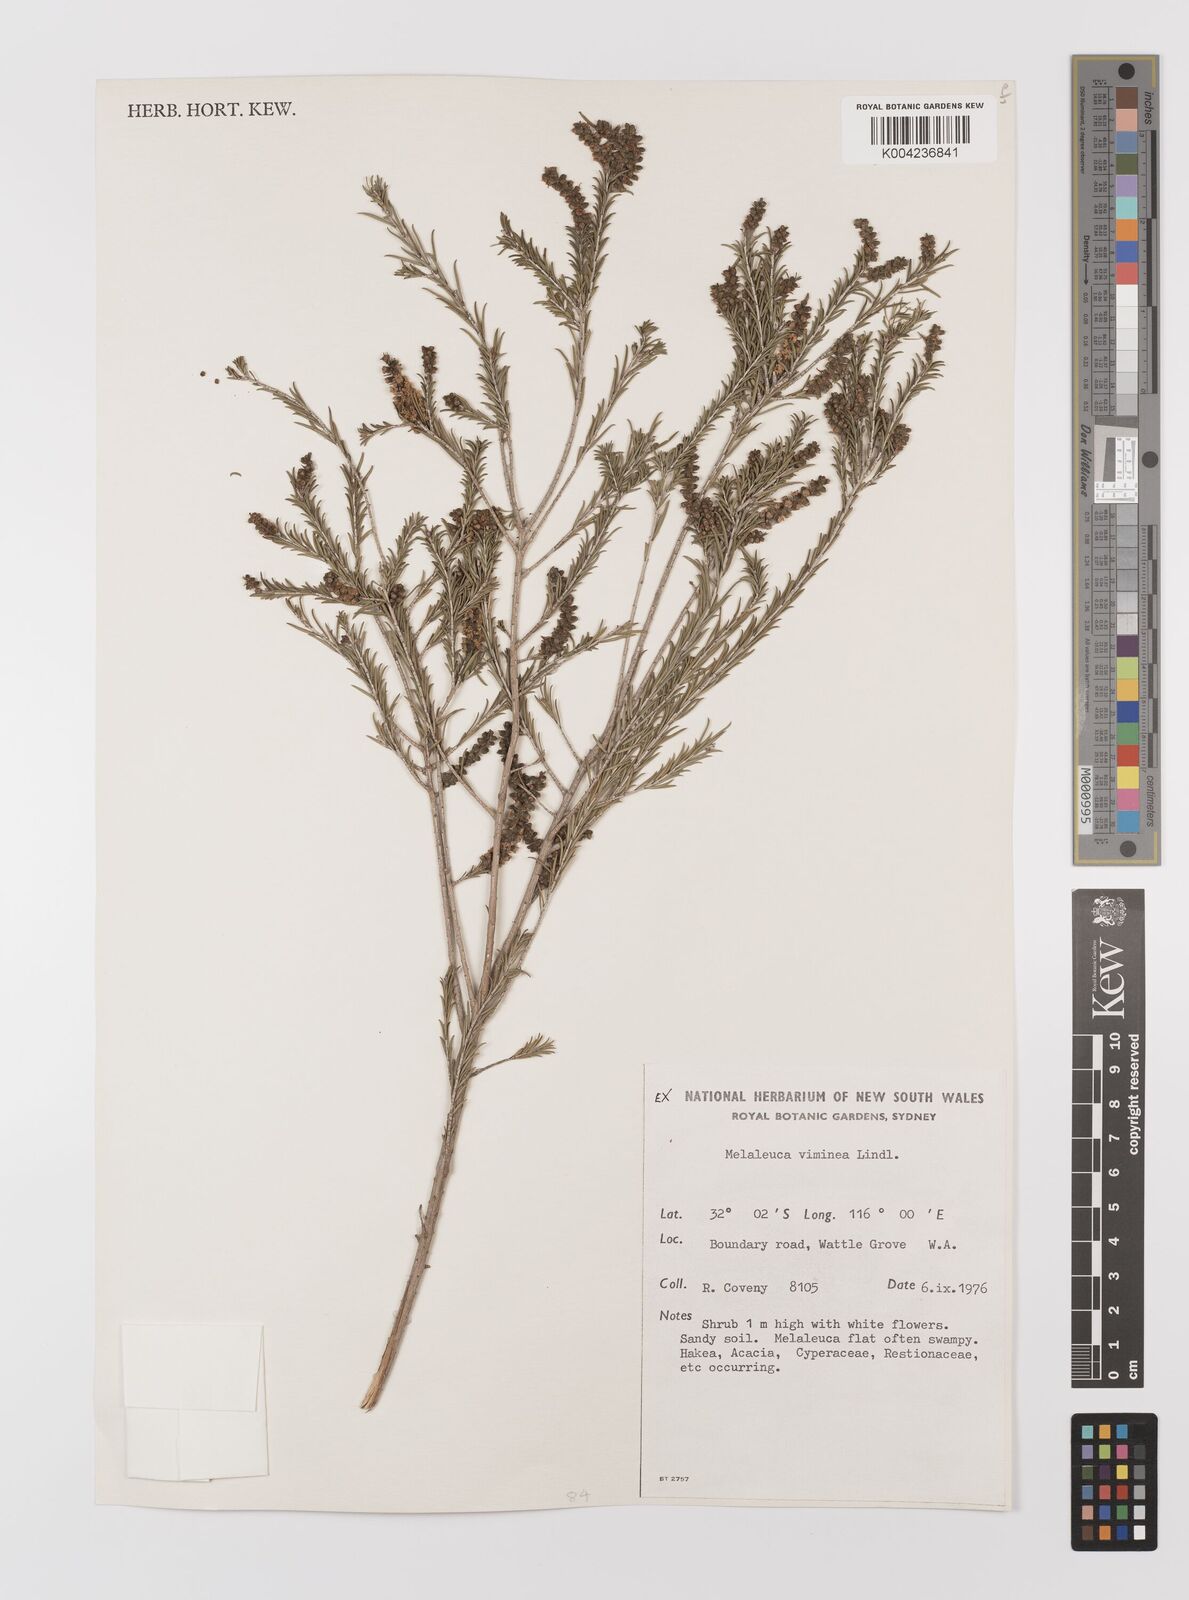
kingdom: Plantae
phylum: Tracheophyta
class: Magnoliopsida
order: Myrtales
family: Myrtaceae
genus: Melaleuca
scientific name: Melaleuca viminea
